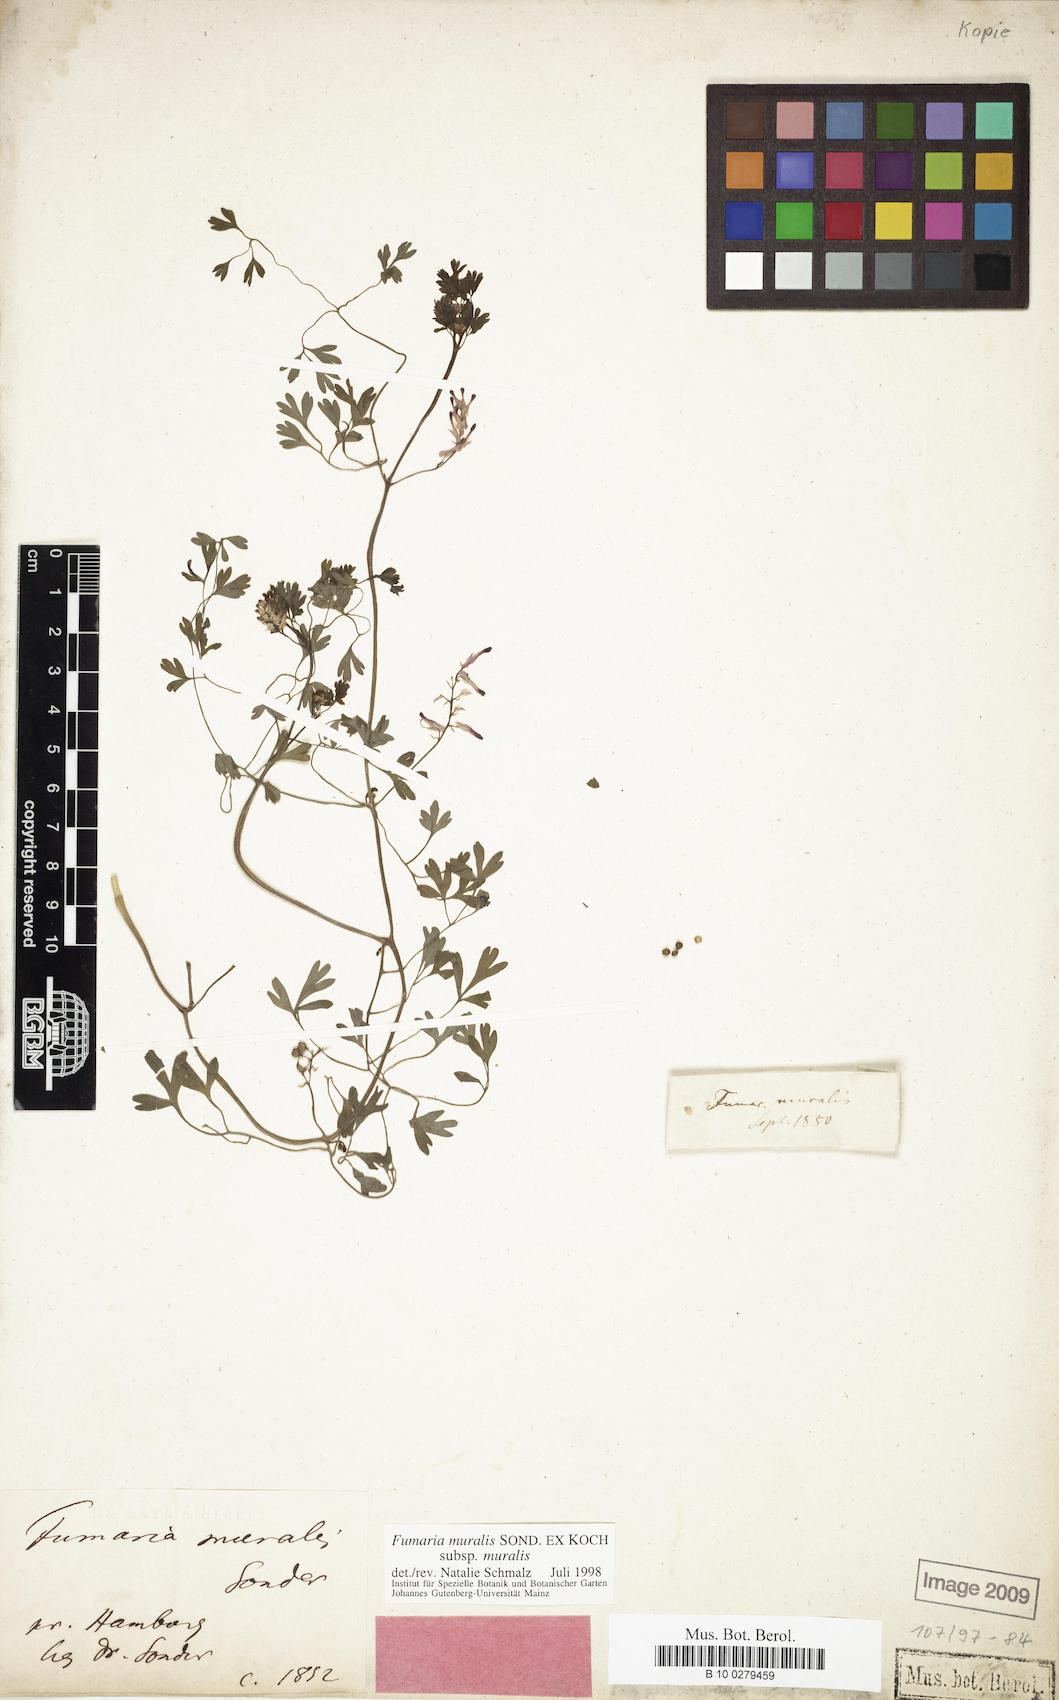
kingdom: Plantae
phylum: Tracheophyta
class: Magnoliopsida
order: Ranunculales
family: Papaveraceae
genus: Fumaria
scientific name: Fumaria muralis
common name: Common ramping-fumitory
